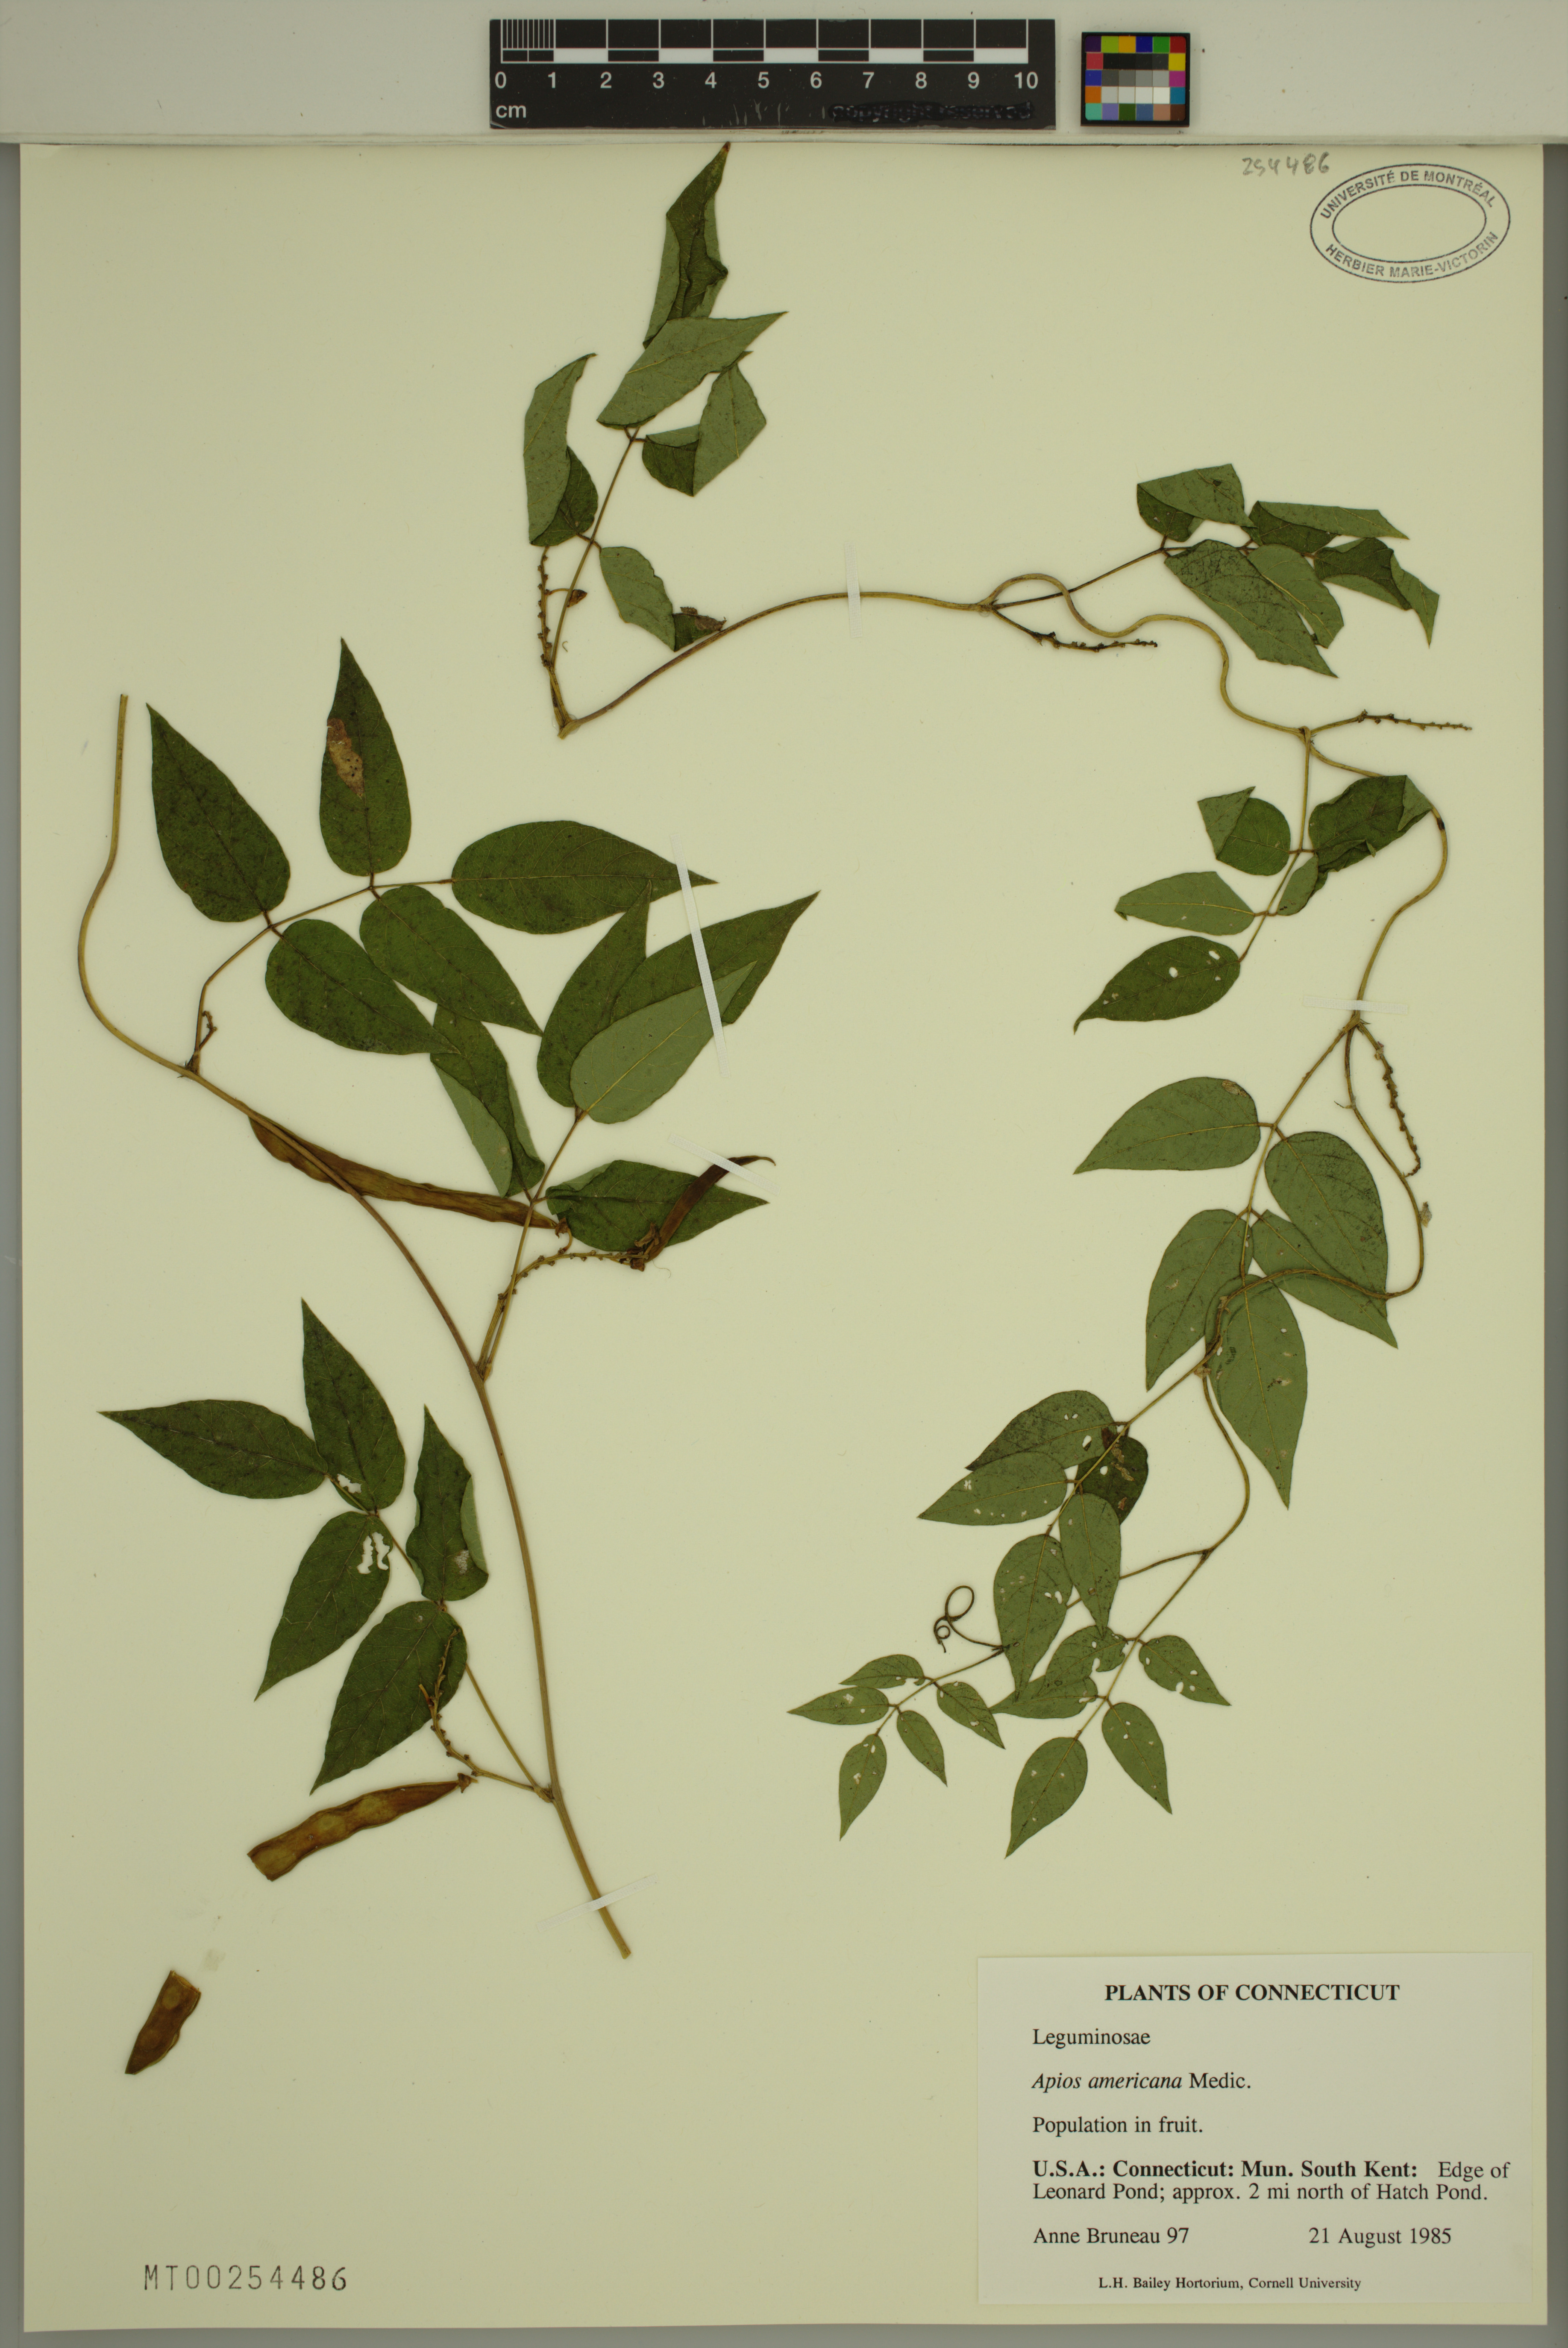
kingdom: Plantae
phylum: Tracheophyta
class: Magnoliopsida
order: Fabales
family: Fabaceae
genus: Apios
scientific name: Apios americana
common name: American potato-bean
